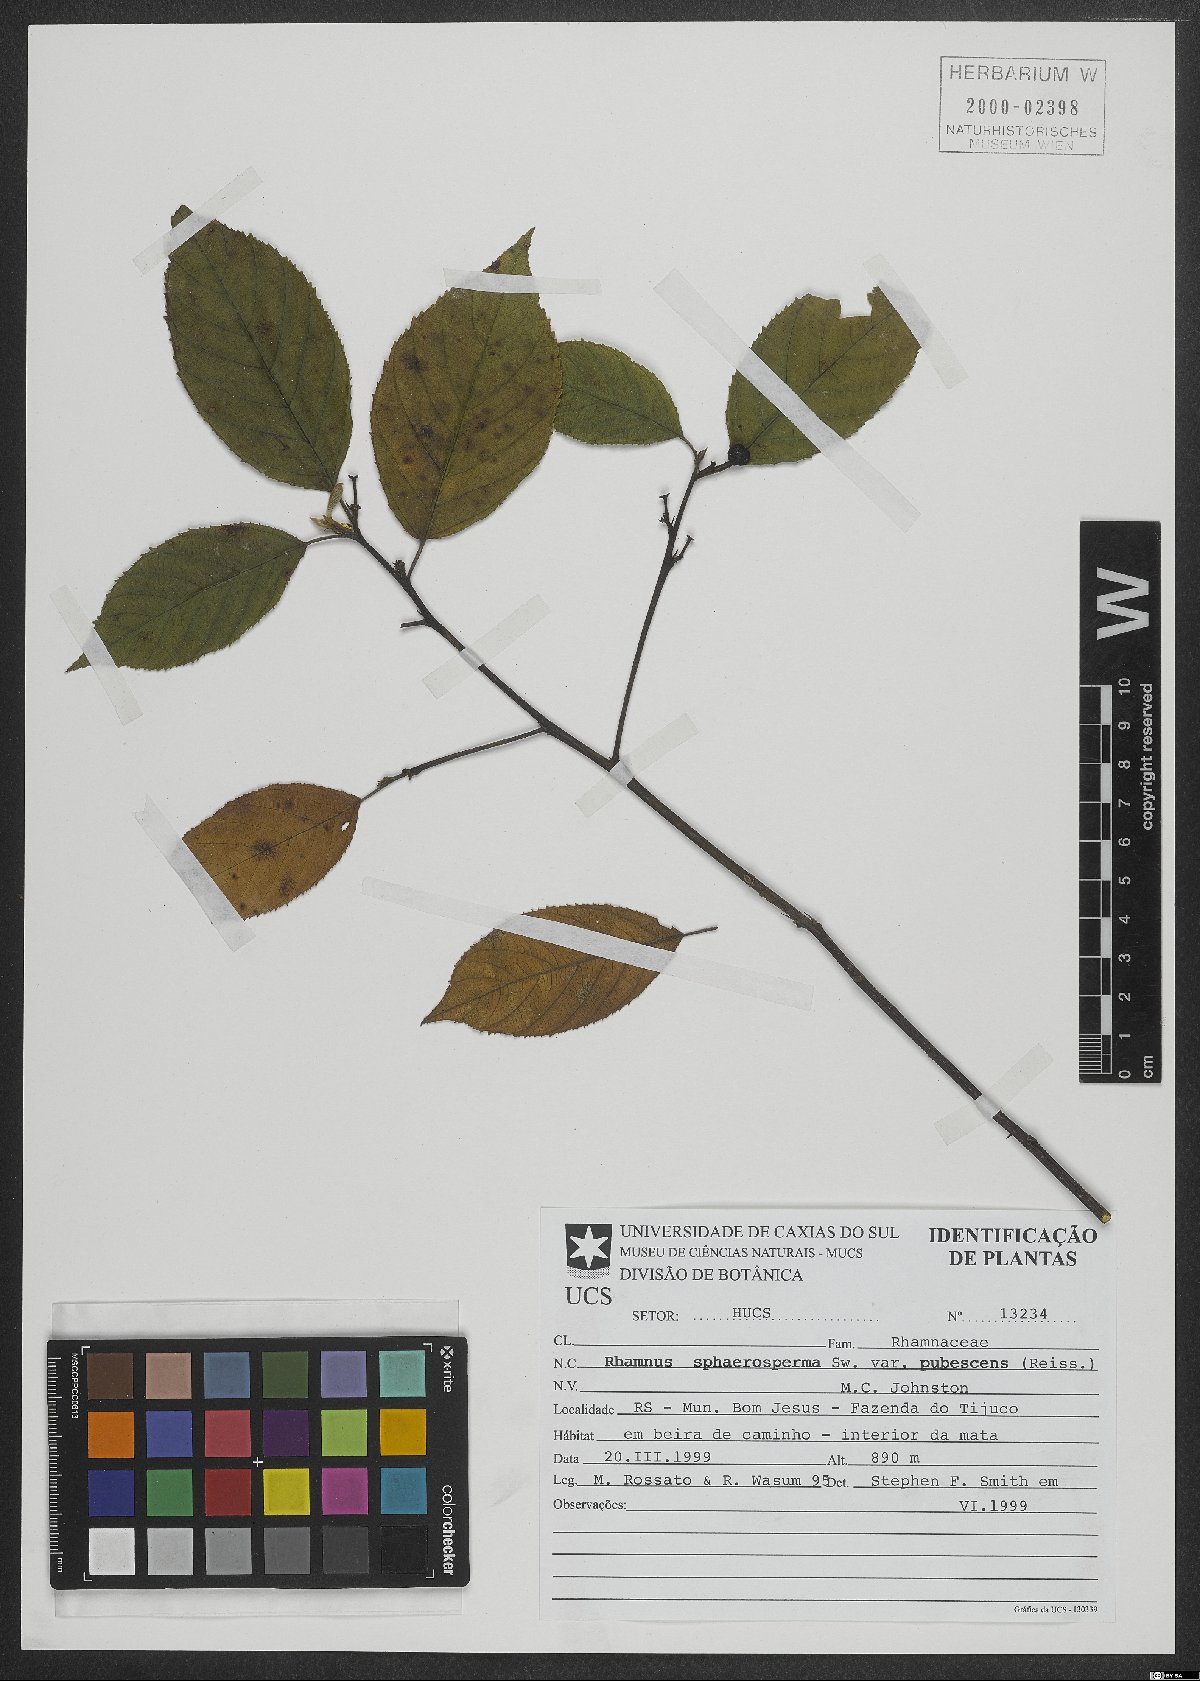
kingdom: Plantae
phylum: Tracheophyta
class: Magnoliopsida
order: Rosales
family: Rhamnaceae
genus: Frangula
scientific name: Frangula sphaerosperma
